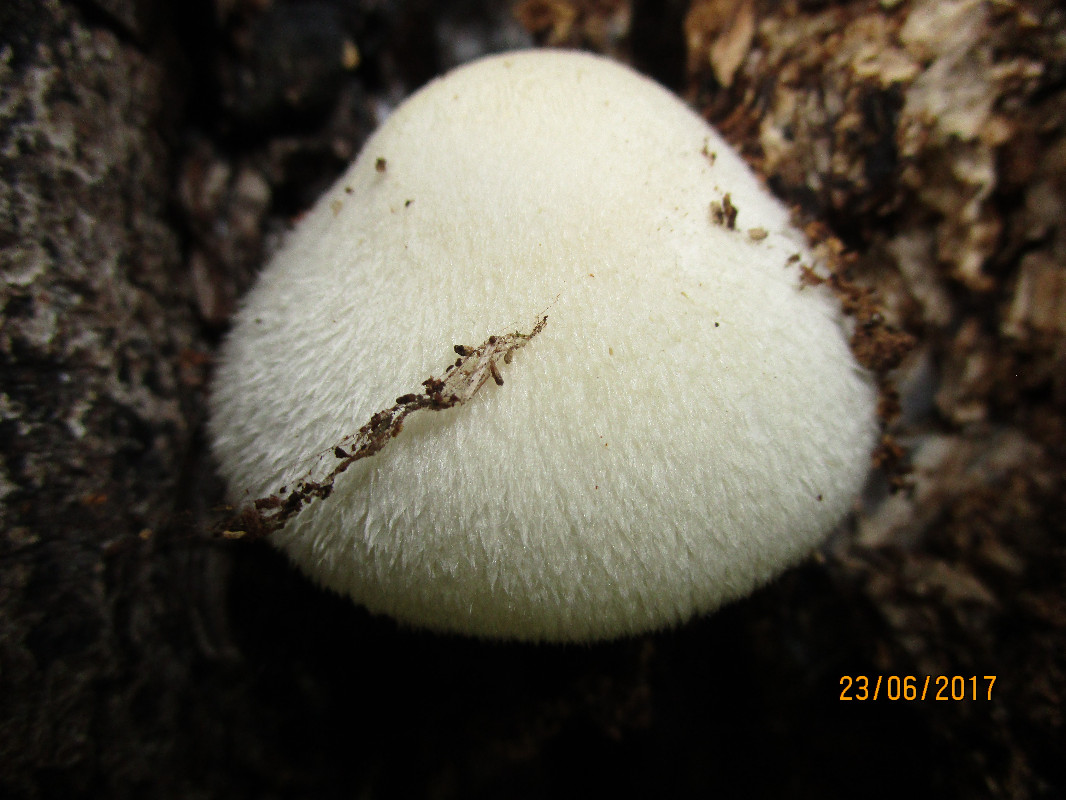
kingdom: Fungi
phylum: Basidiomycota
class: Agaricomycetes
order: Agaricales
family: Pluteaceae
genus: Volvariella
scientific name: Volvariella bombycina
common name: silkehåret posesvamp
